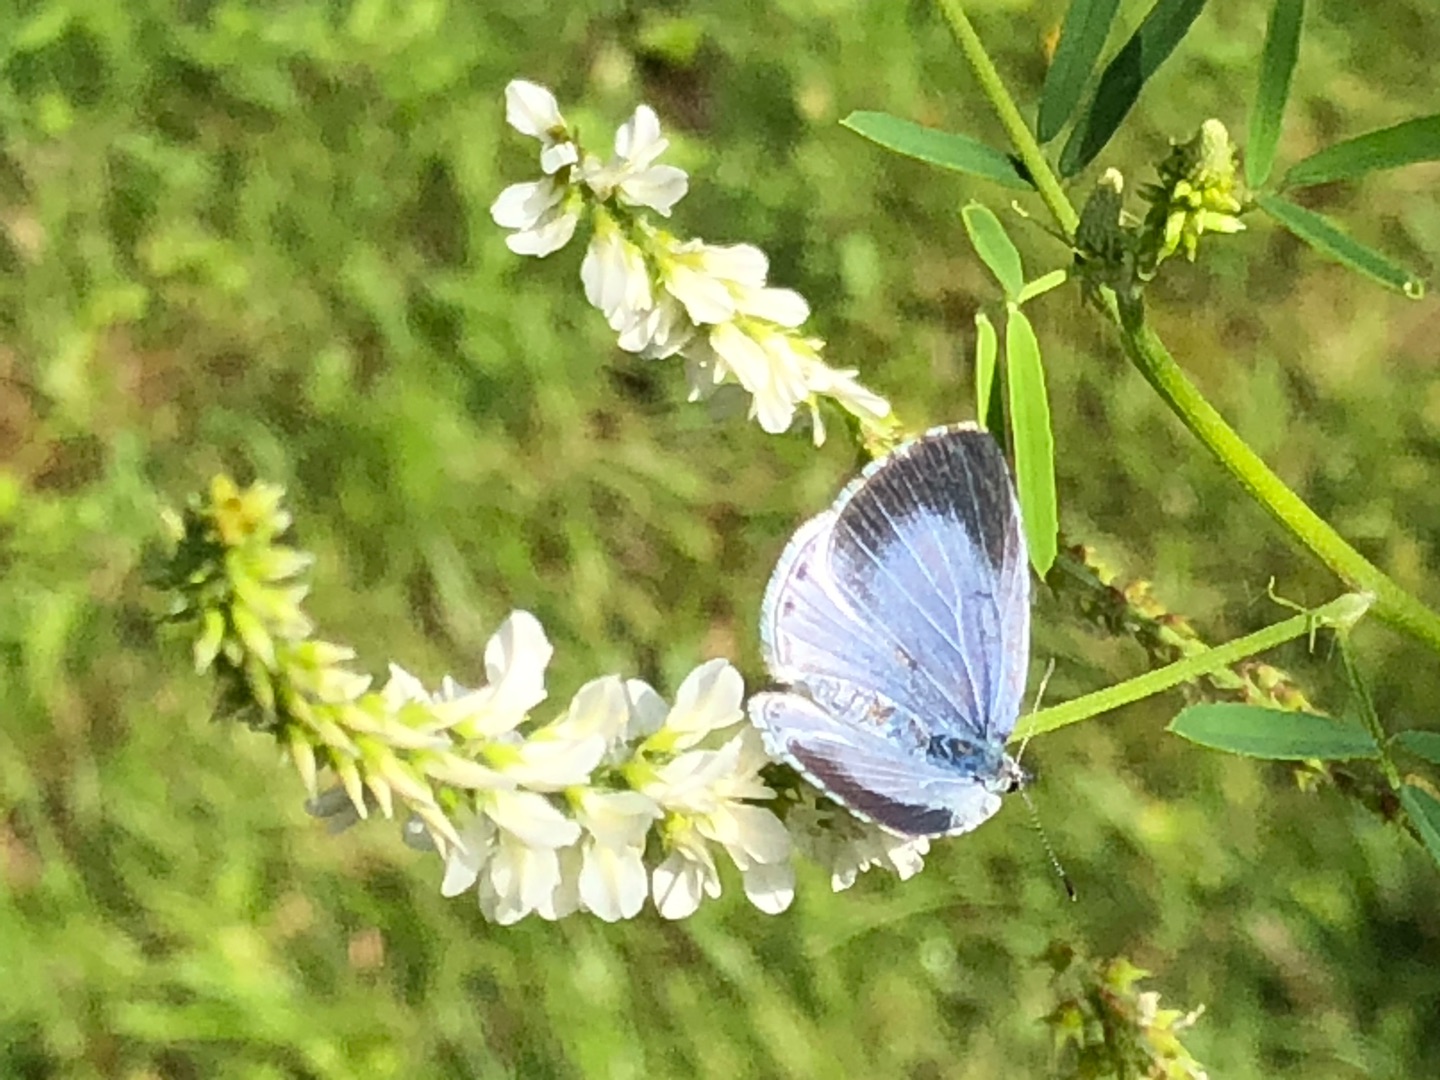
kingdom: Animalia
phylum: Arthropoda
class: Insecta
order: Lepidoptera
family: Lycaenidae
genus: Celastrina
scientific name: Celastrina argiolus
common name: Skovblåfugl
